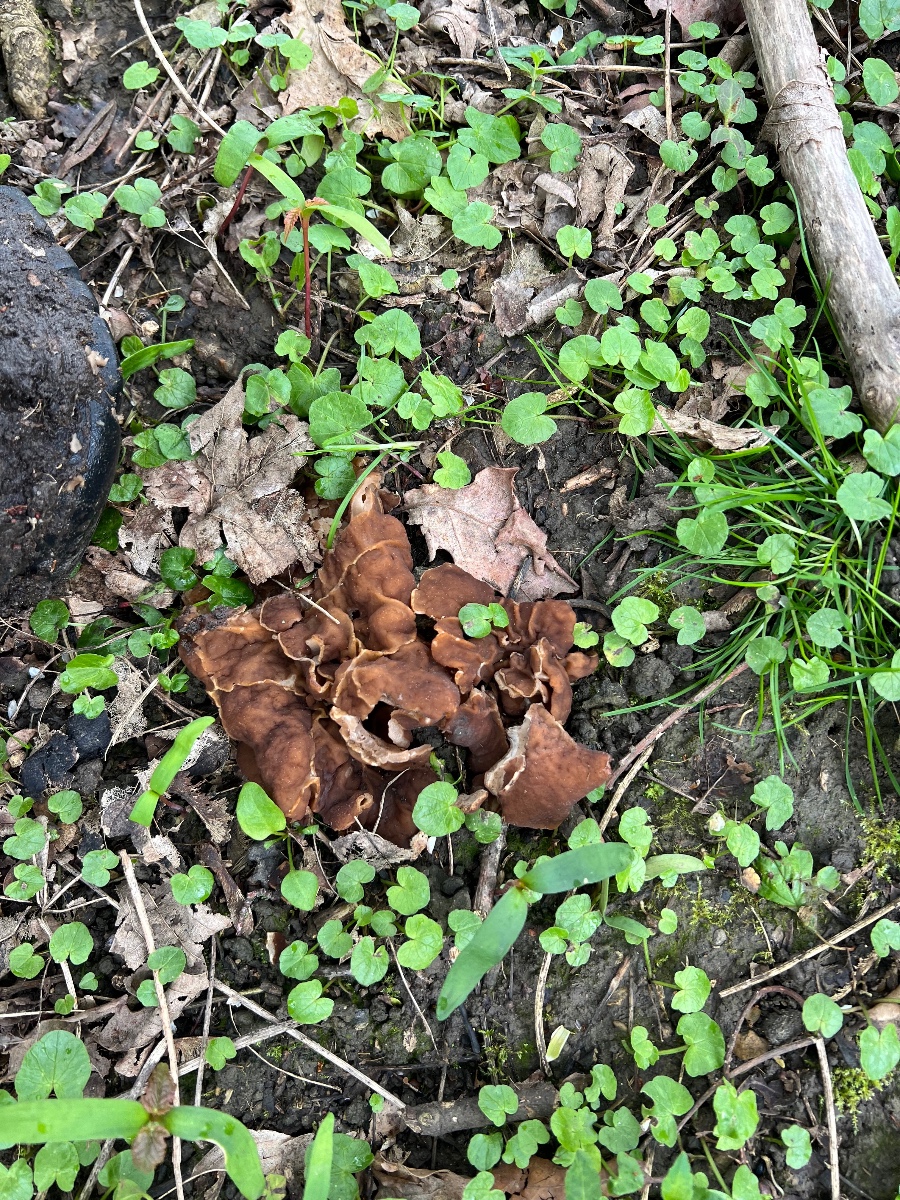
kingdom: Fungi
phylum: Ascomycota
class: Pezizomycetes
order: Pezizales
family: Morchellaceae
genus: Disciotis
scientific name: Disciotis venosa
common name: klor-bægermorkel
